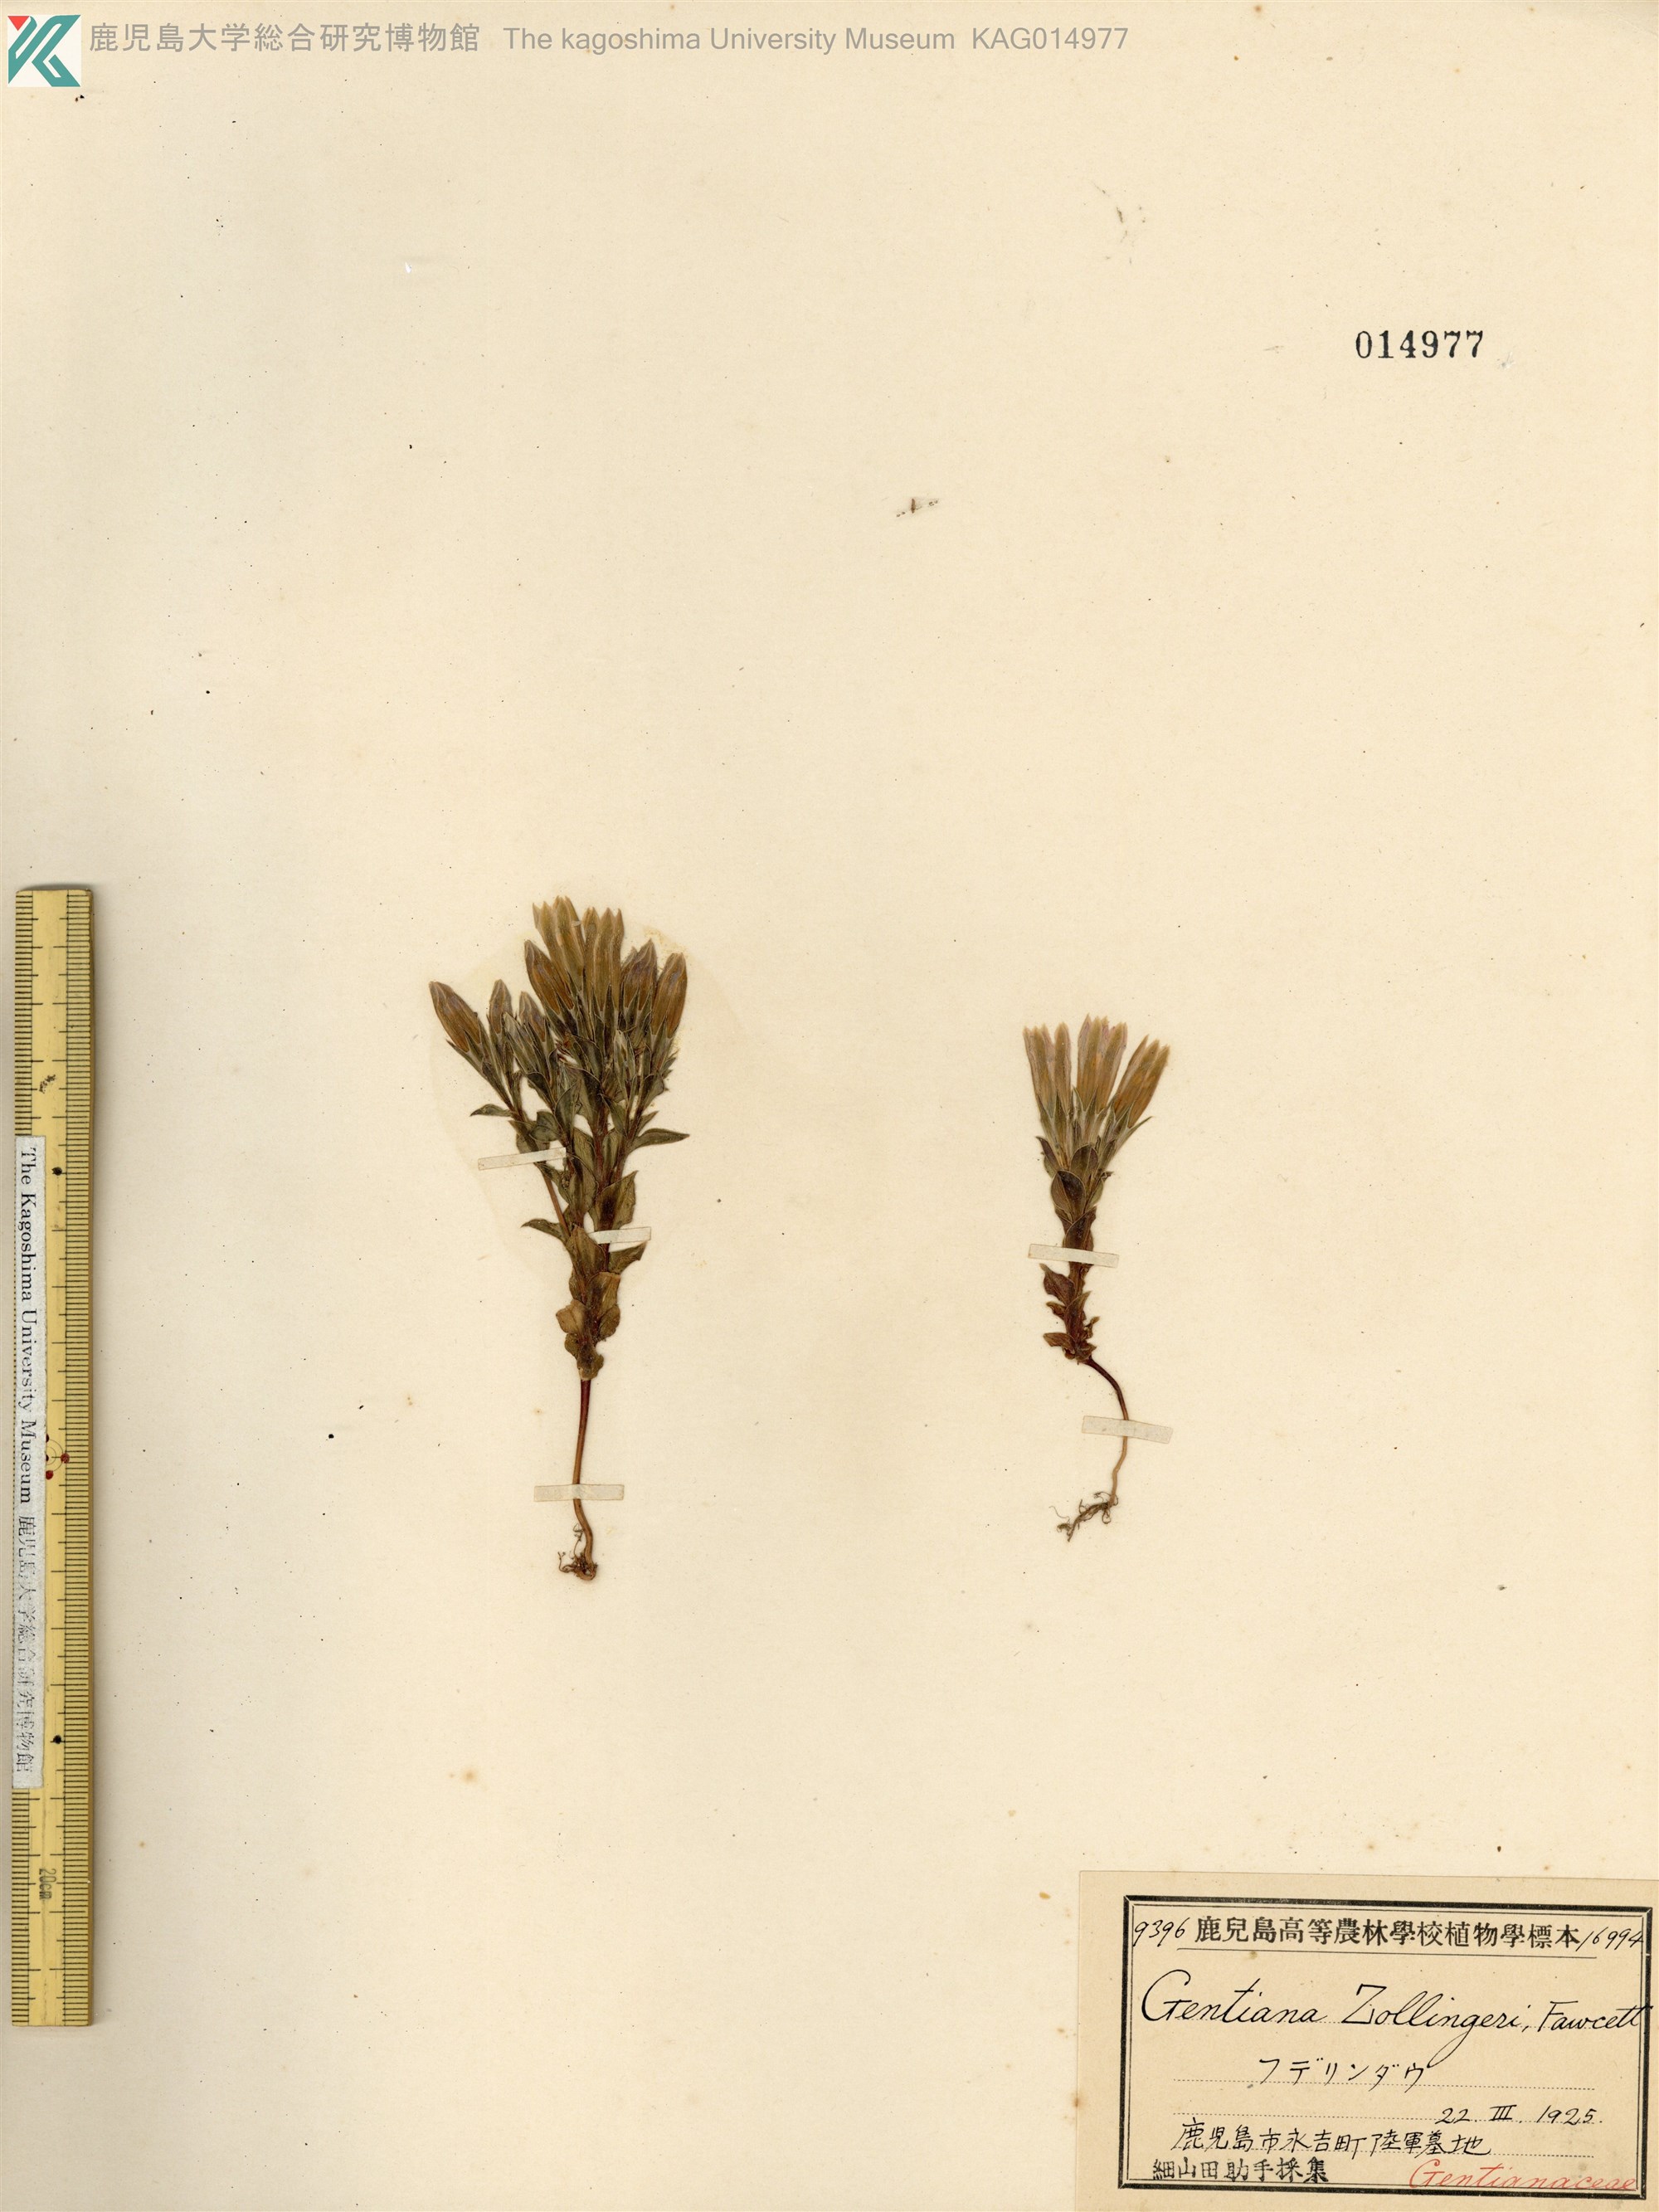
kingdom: Plantae
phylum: Tracheophyta
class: Magnoliopsida
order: Gentianales
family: Gentianaceae
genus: Gentiana
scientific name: Gentiana zollingeri
